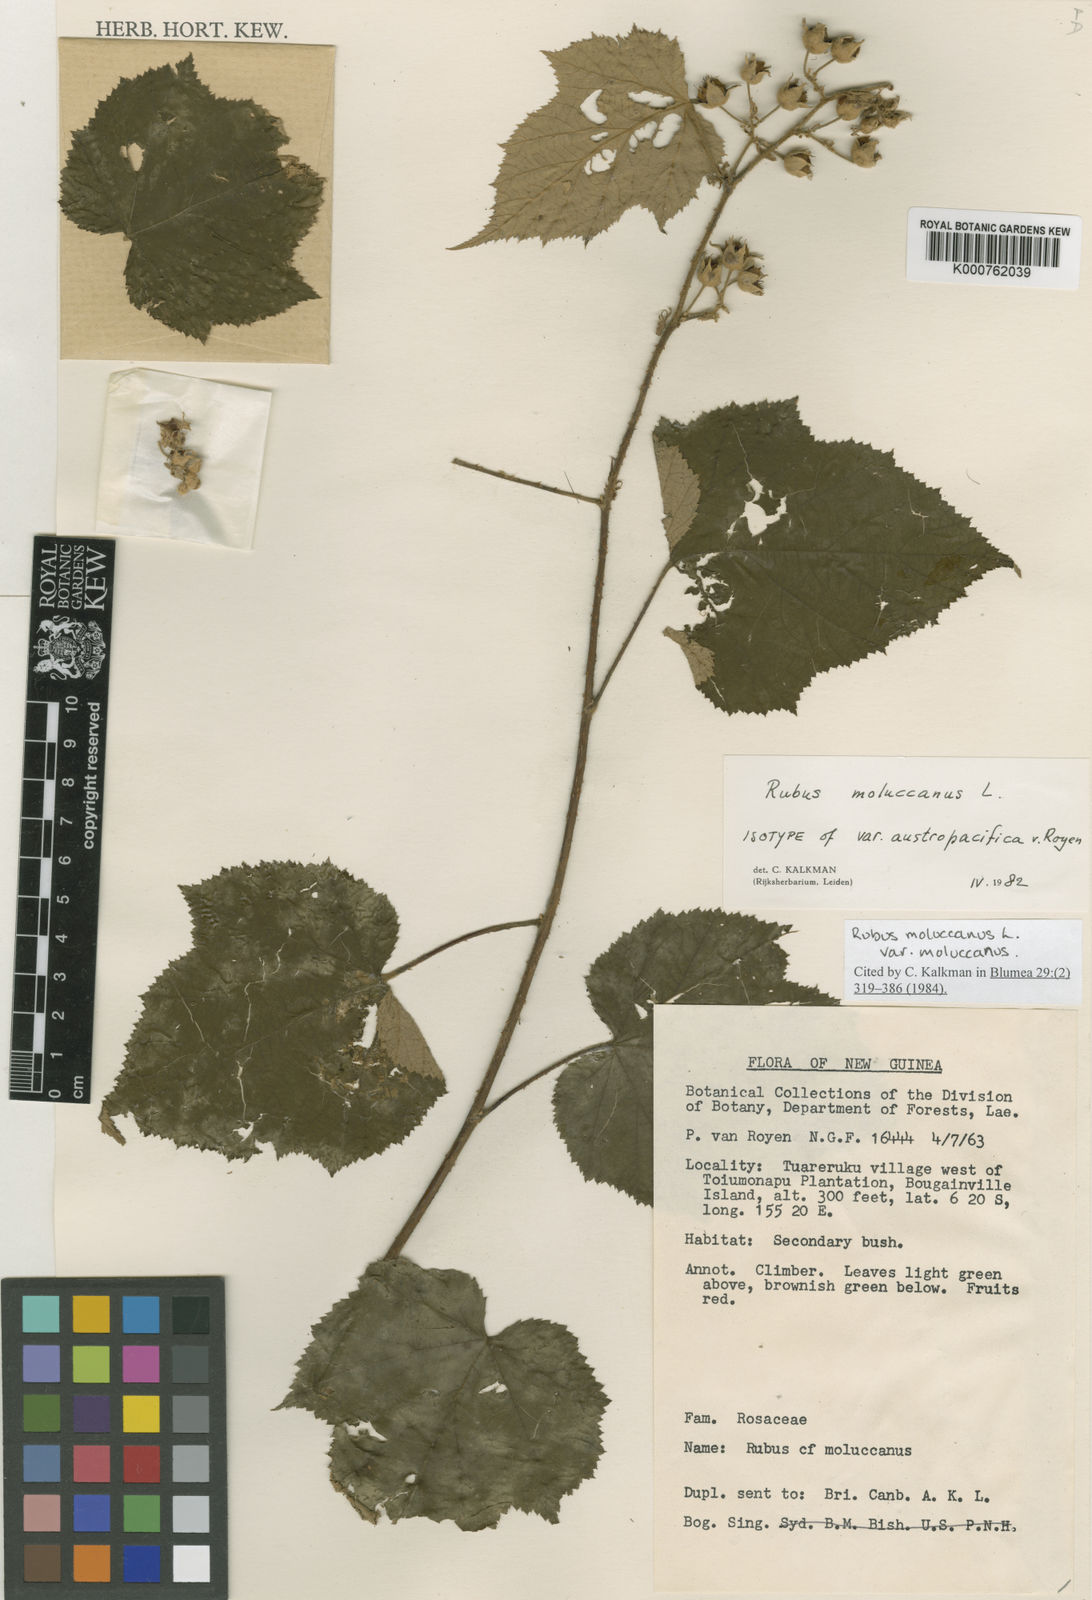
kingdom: Plantae
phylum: Tracheophyta
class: Magnoliopsida
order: Rosales
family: Rosaceae
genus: Rubus
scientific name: Rubus moluccanus
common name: Wild raspberry
